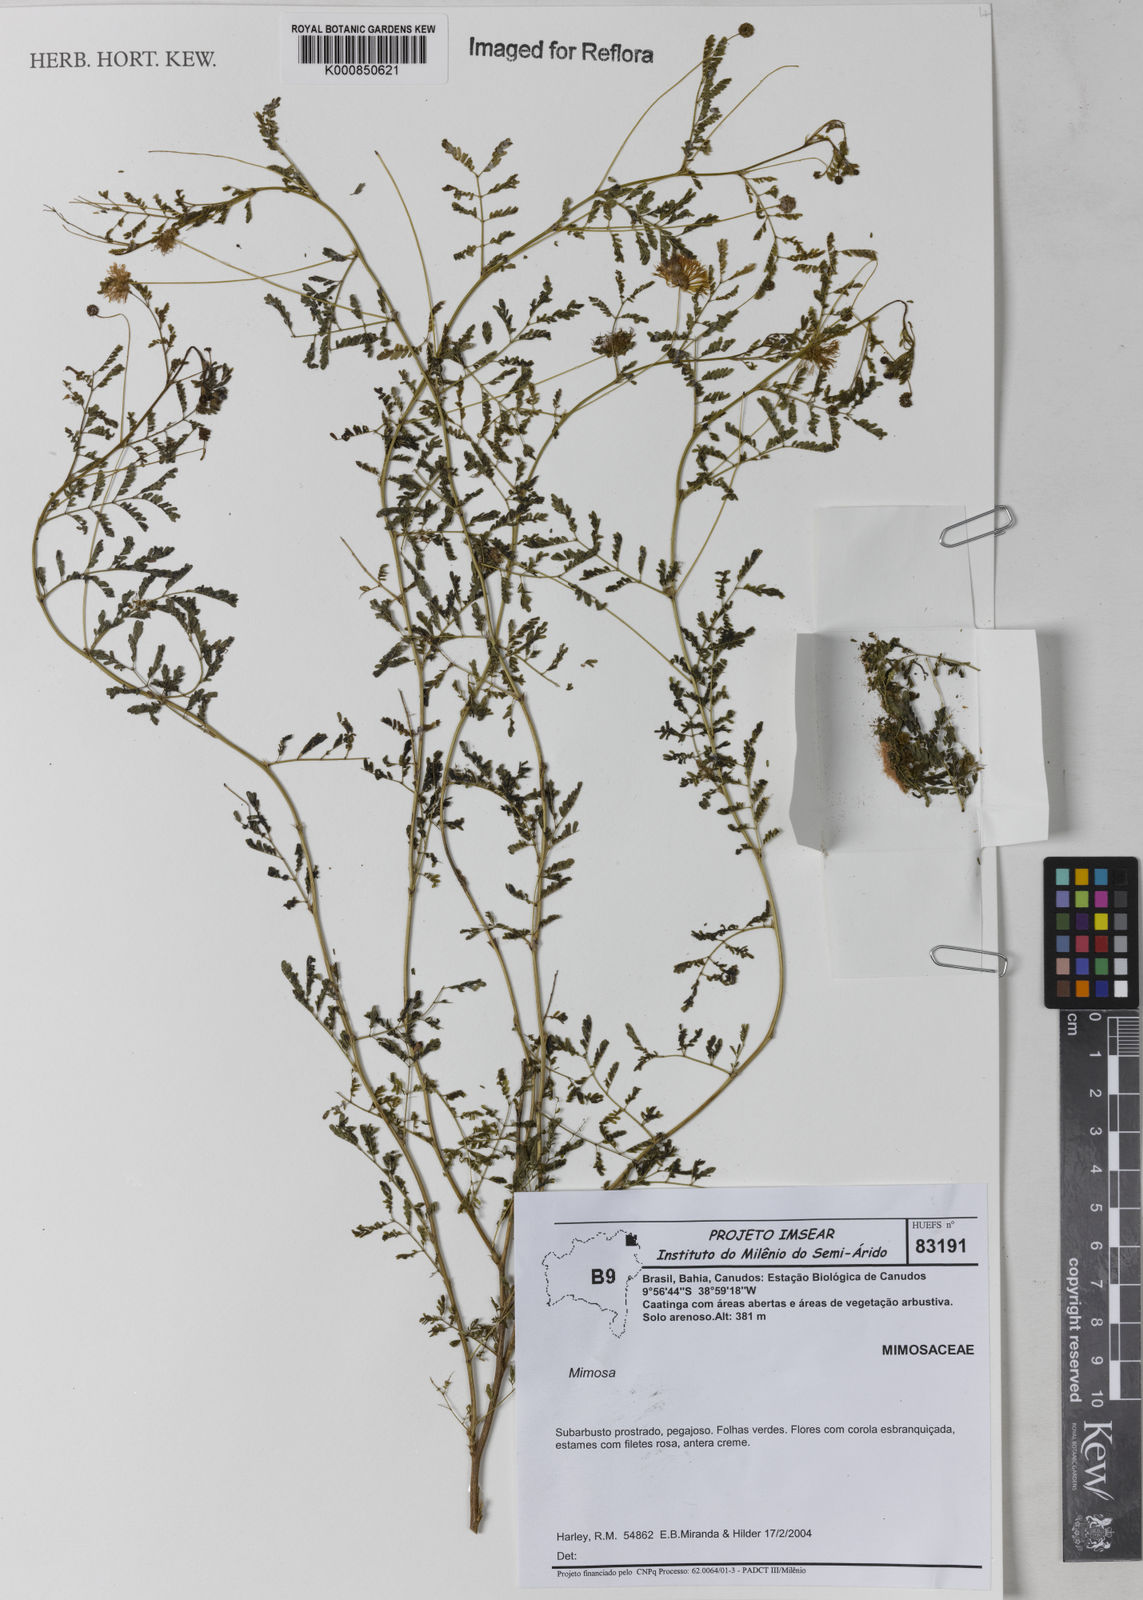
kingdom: Plantae
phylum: Tracheophyta
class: Magnoliopsida
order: Fabales
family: Fabaceae
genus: Mimosa
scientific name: Mimosa guaranitica
